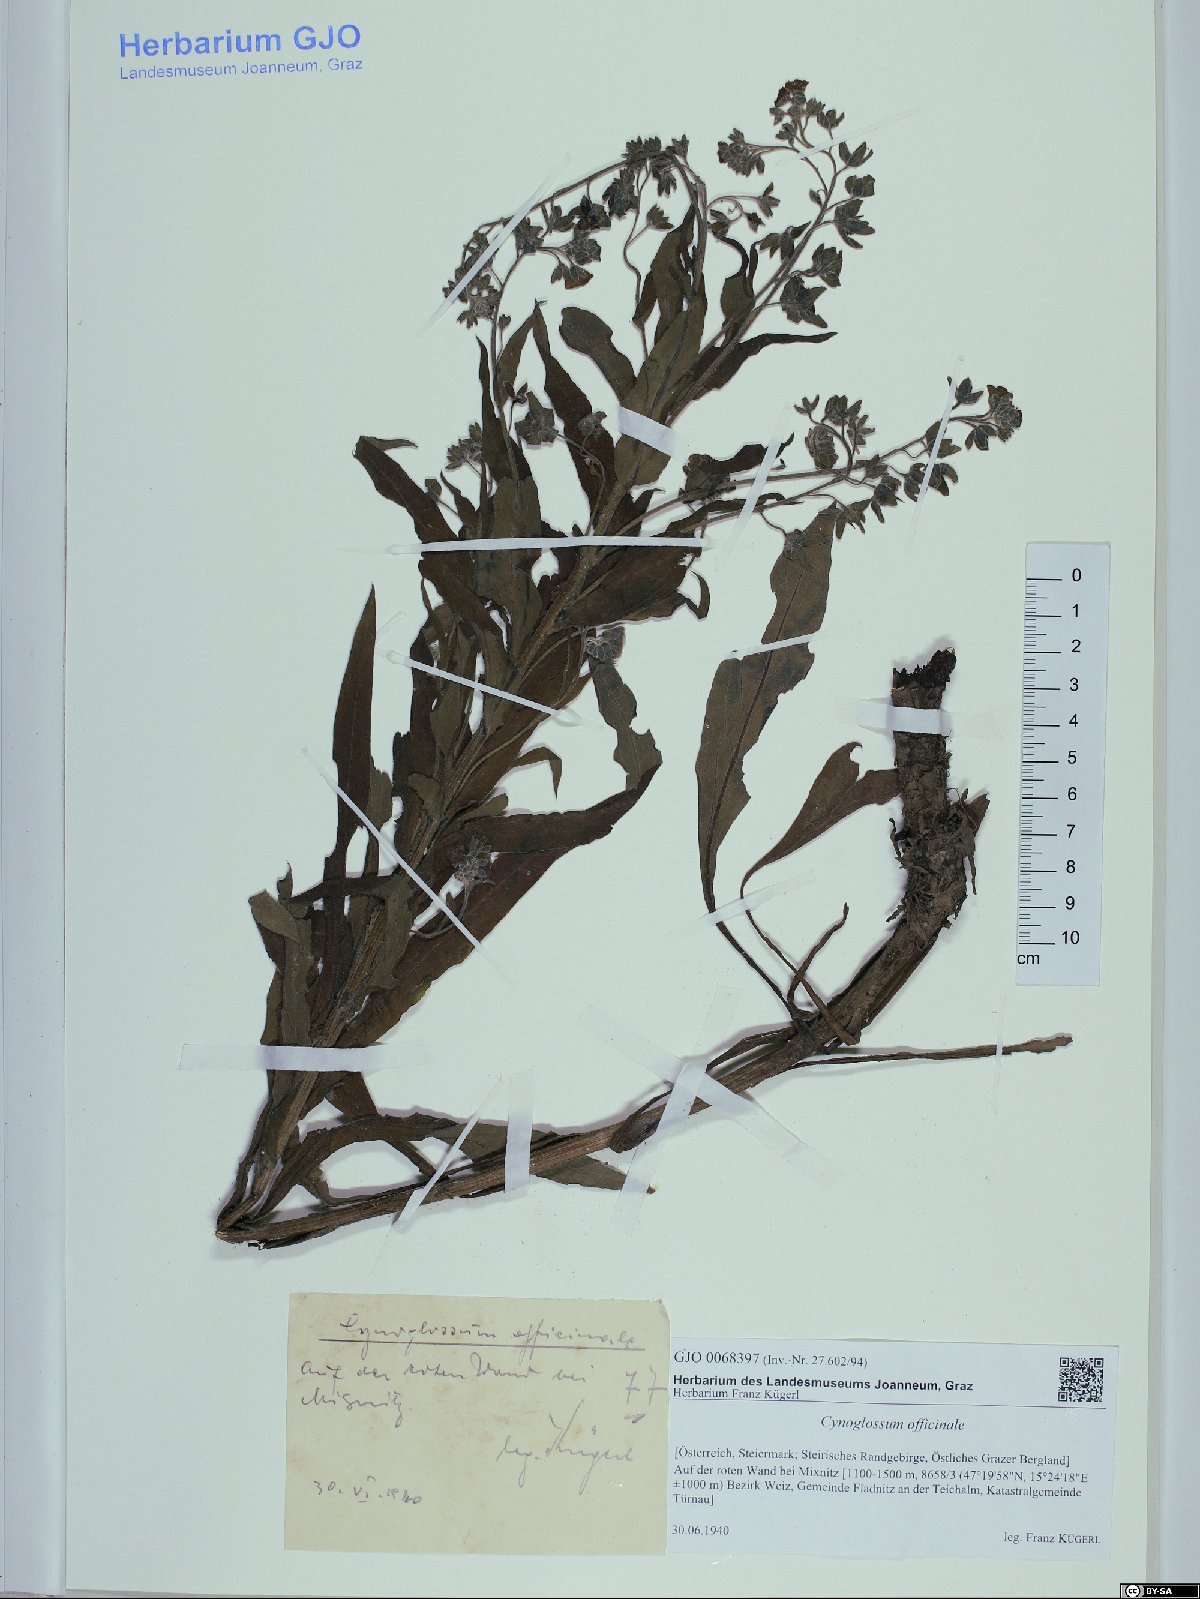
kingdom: Plantae
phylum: Tracheophyta
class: Magnoliopsida
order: Boraginales
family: Boraginaceae
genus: Cynoglossum
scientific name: Cynoglossum officinale
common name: Hound's-tongue
